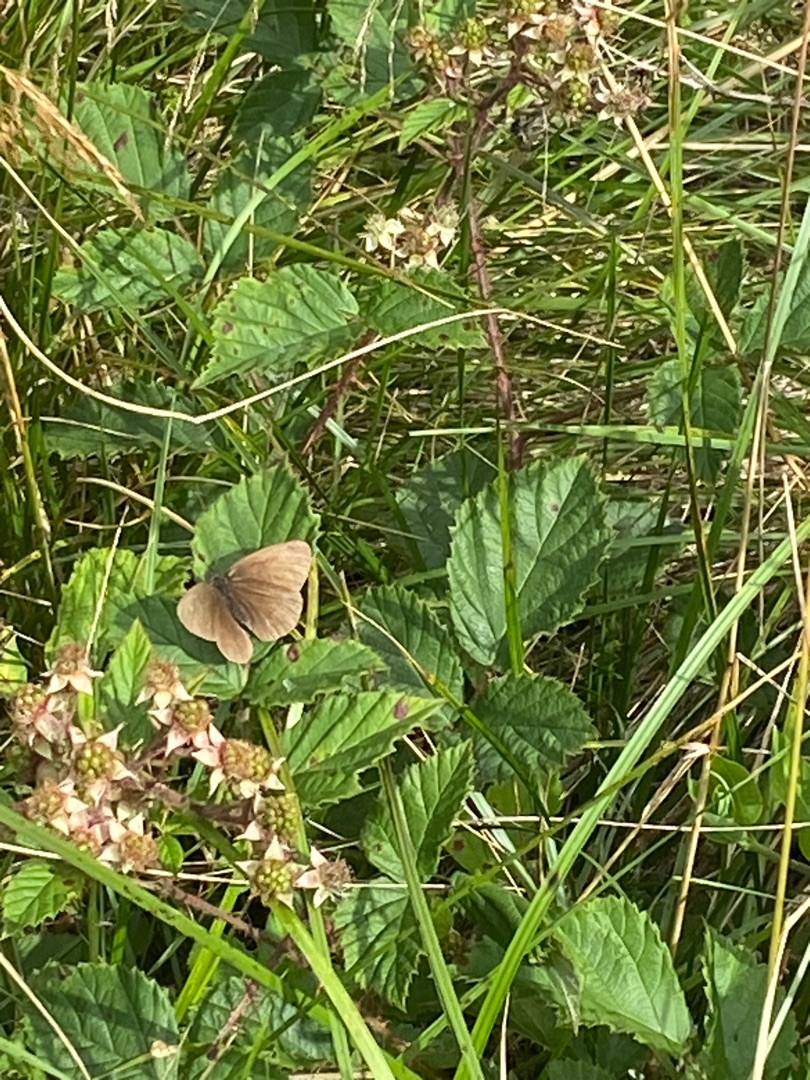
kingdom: Animalia
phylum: Arthropoda
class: Insecta
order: Lepidoptera
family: Nymphalidae
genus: Aphantopus
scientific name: Aphantopus hyperantus
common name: Engrandøje
